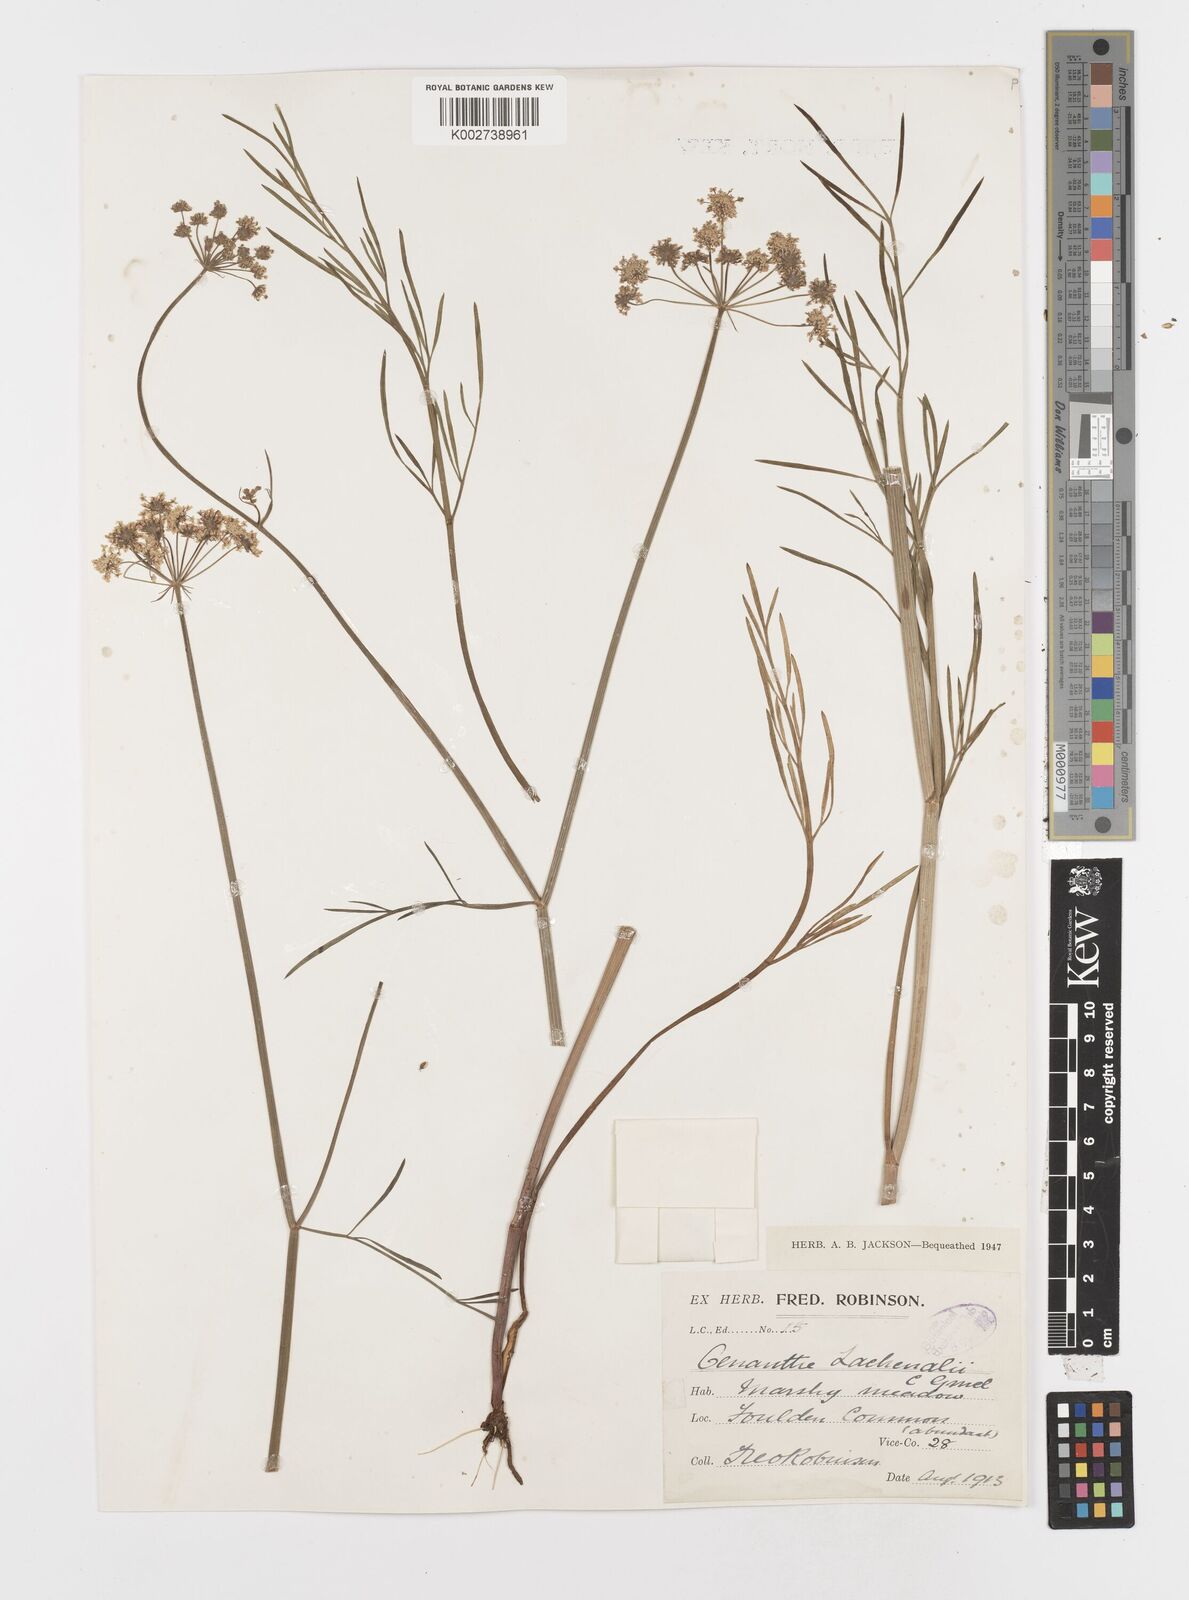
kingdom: Plantae
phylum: Tracheophyta
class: Magnoliopsida
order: Apiales
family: Apiaceae
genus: Oenanthe
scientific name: Oenanthe lachenalii
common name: Parsley water-dropwort
